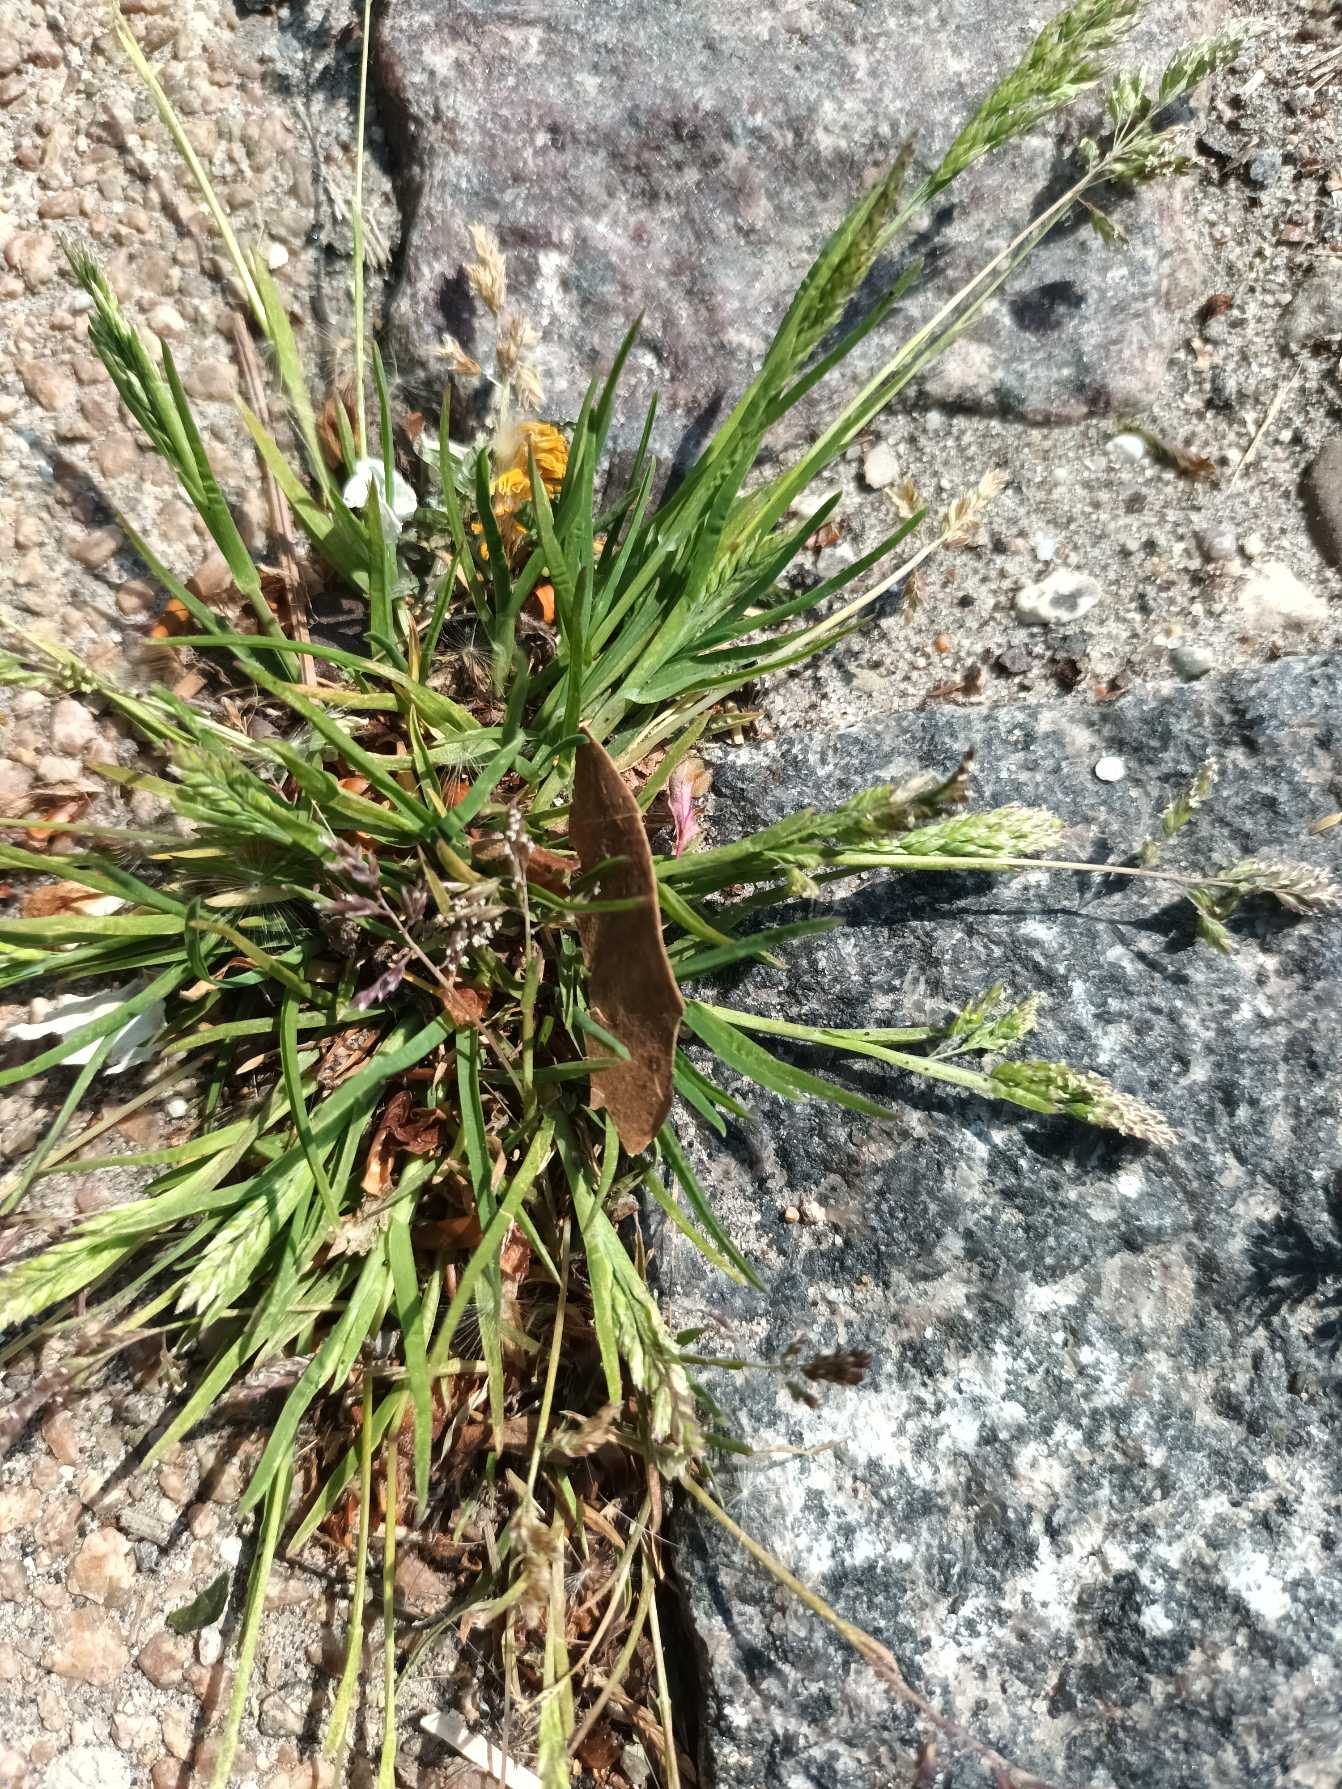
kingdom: Plantae
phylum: Tracheophyta
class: Liliopsida
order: Poales
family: Poaceae
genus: Poa
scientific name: Poa annua
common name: Enårig rapgræs
